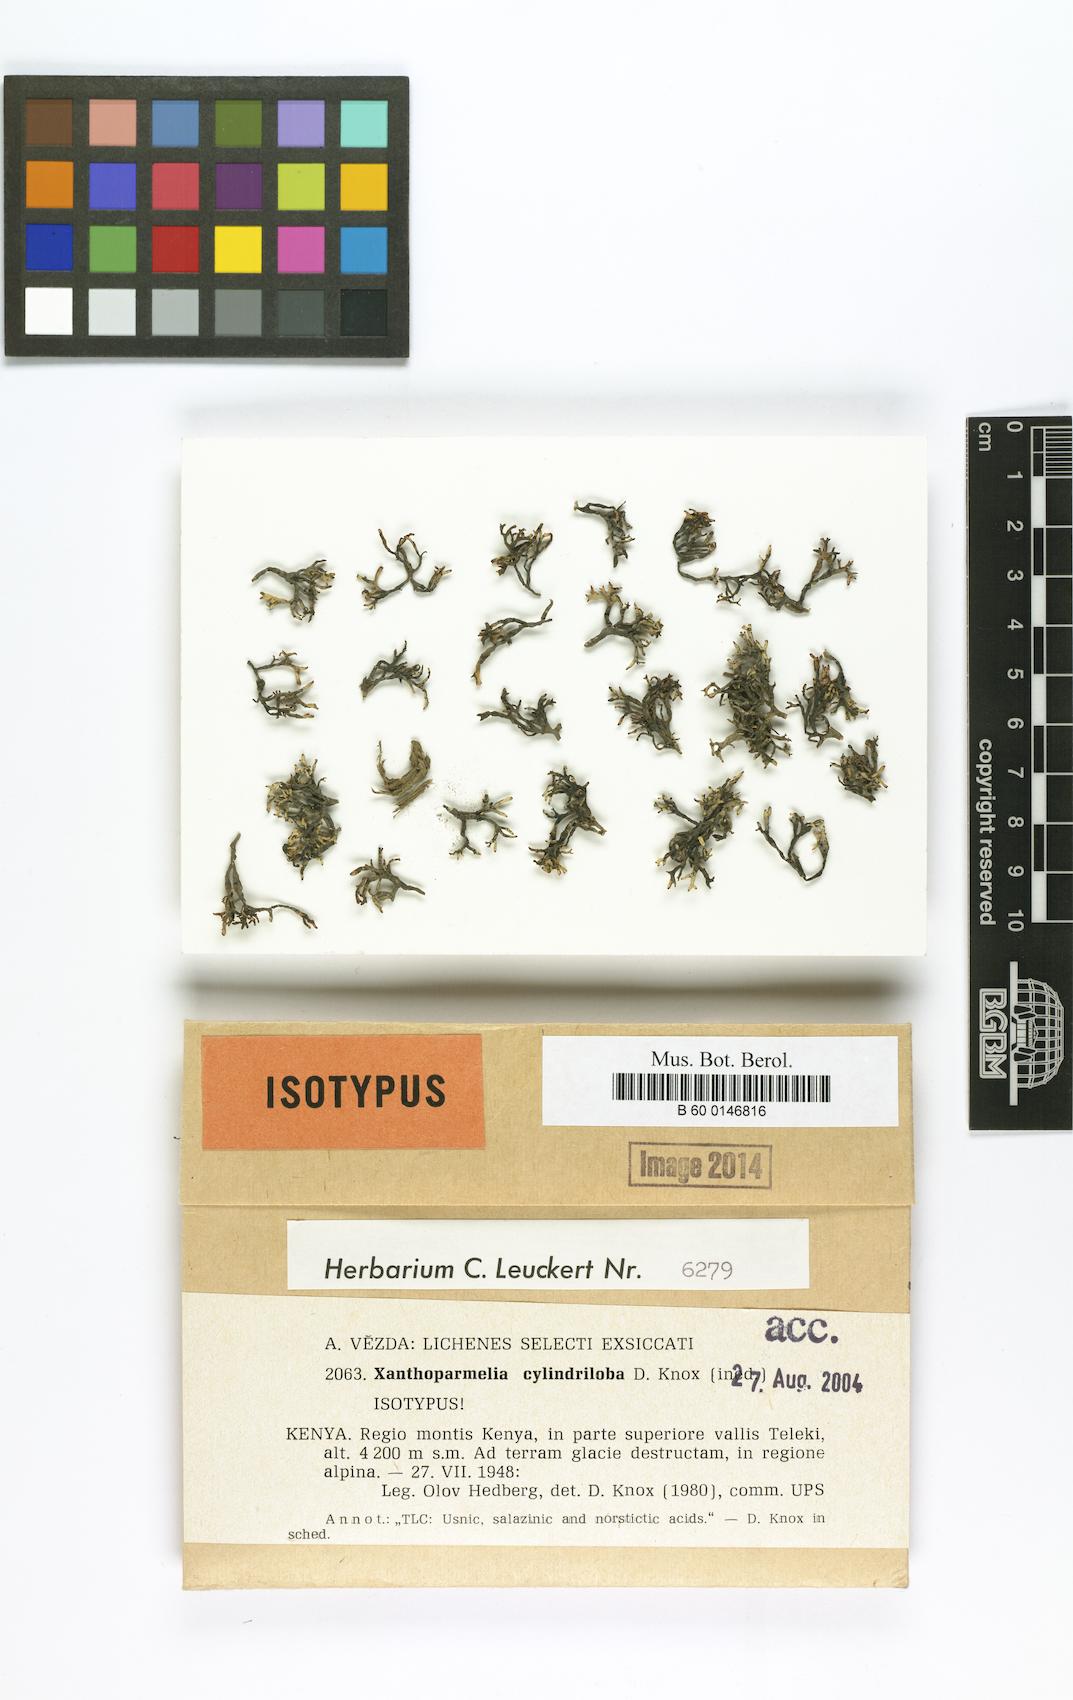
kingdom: Fungi
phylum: Ascomycota
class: Lecanoromycetes
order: Lecanorales
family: Parmeliaceae
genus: Xanthoparmelia
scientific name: Xanthoparmelia
